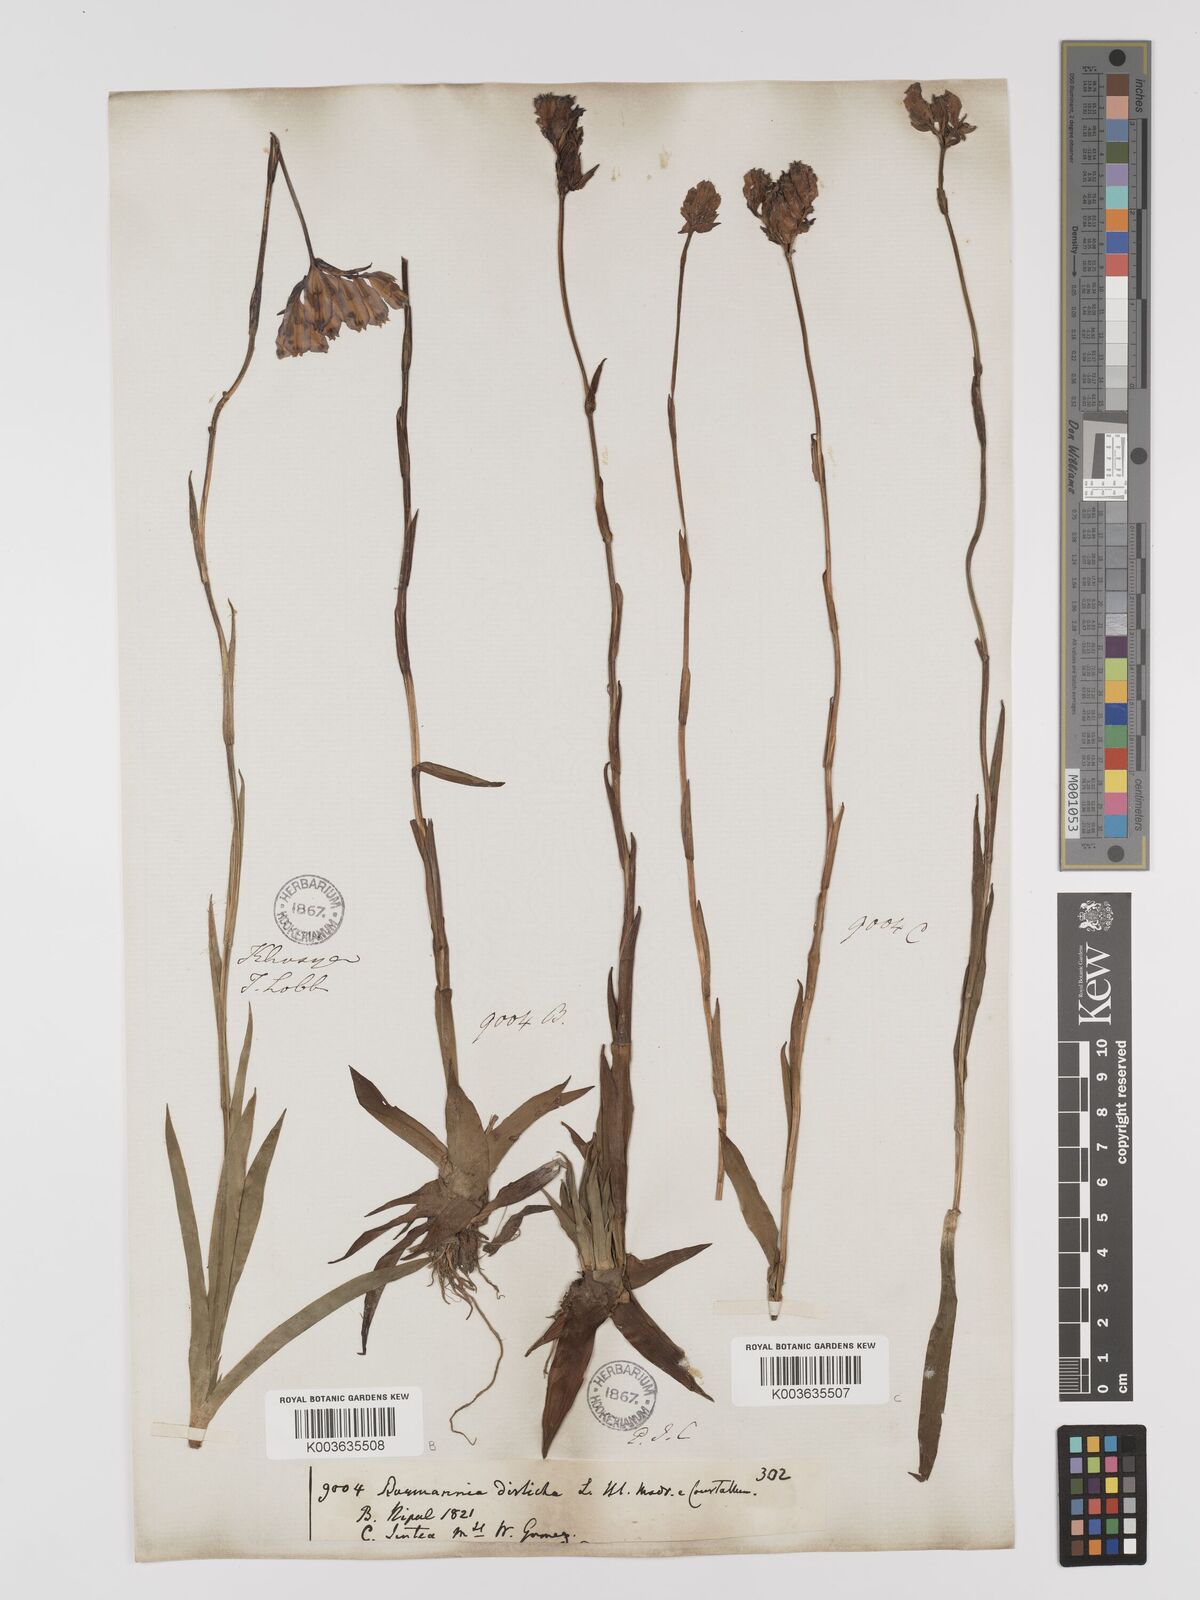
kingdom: Plantae
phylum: Tracheophyta
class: Liliopsida
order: Dioscoreales
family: Burmanniaceae
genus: Burmannia
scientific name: Burmannia disticha
